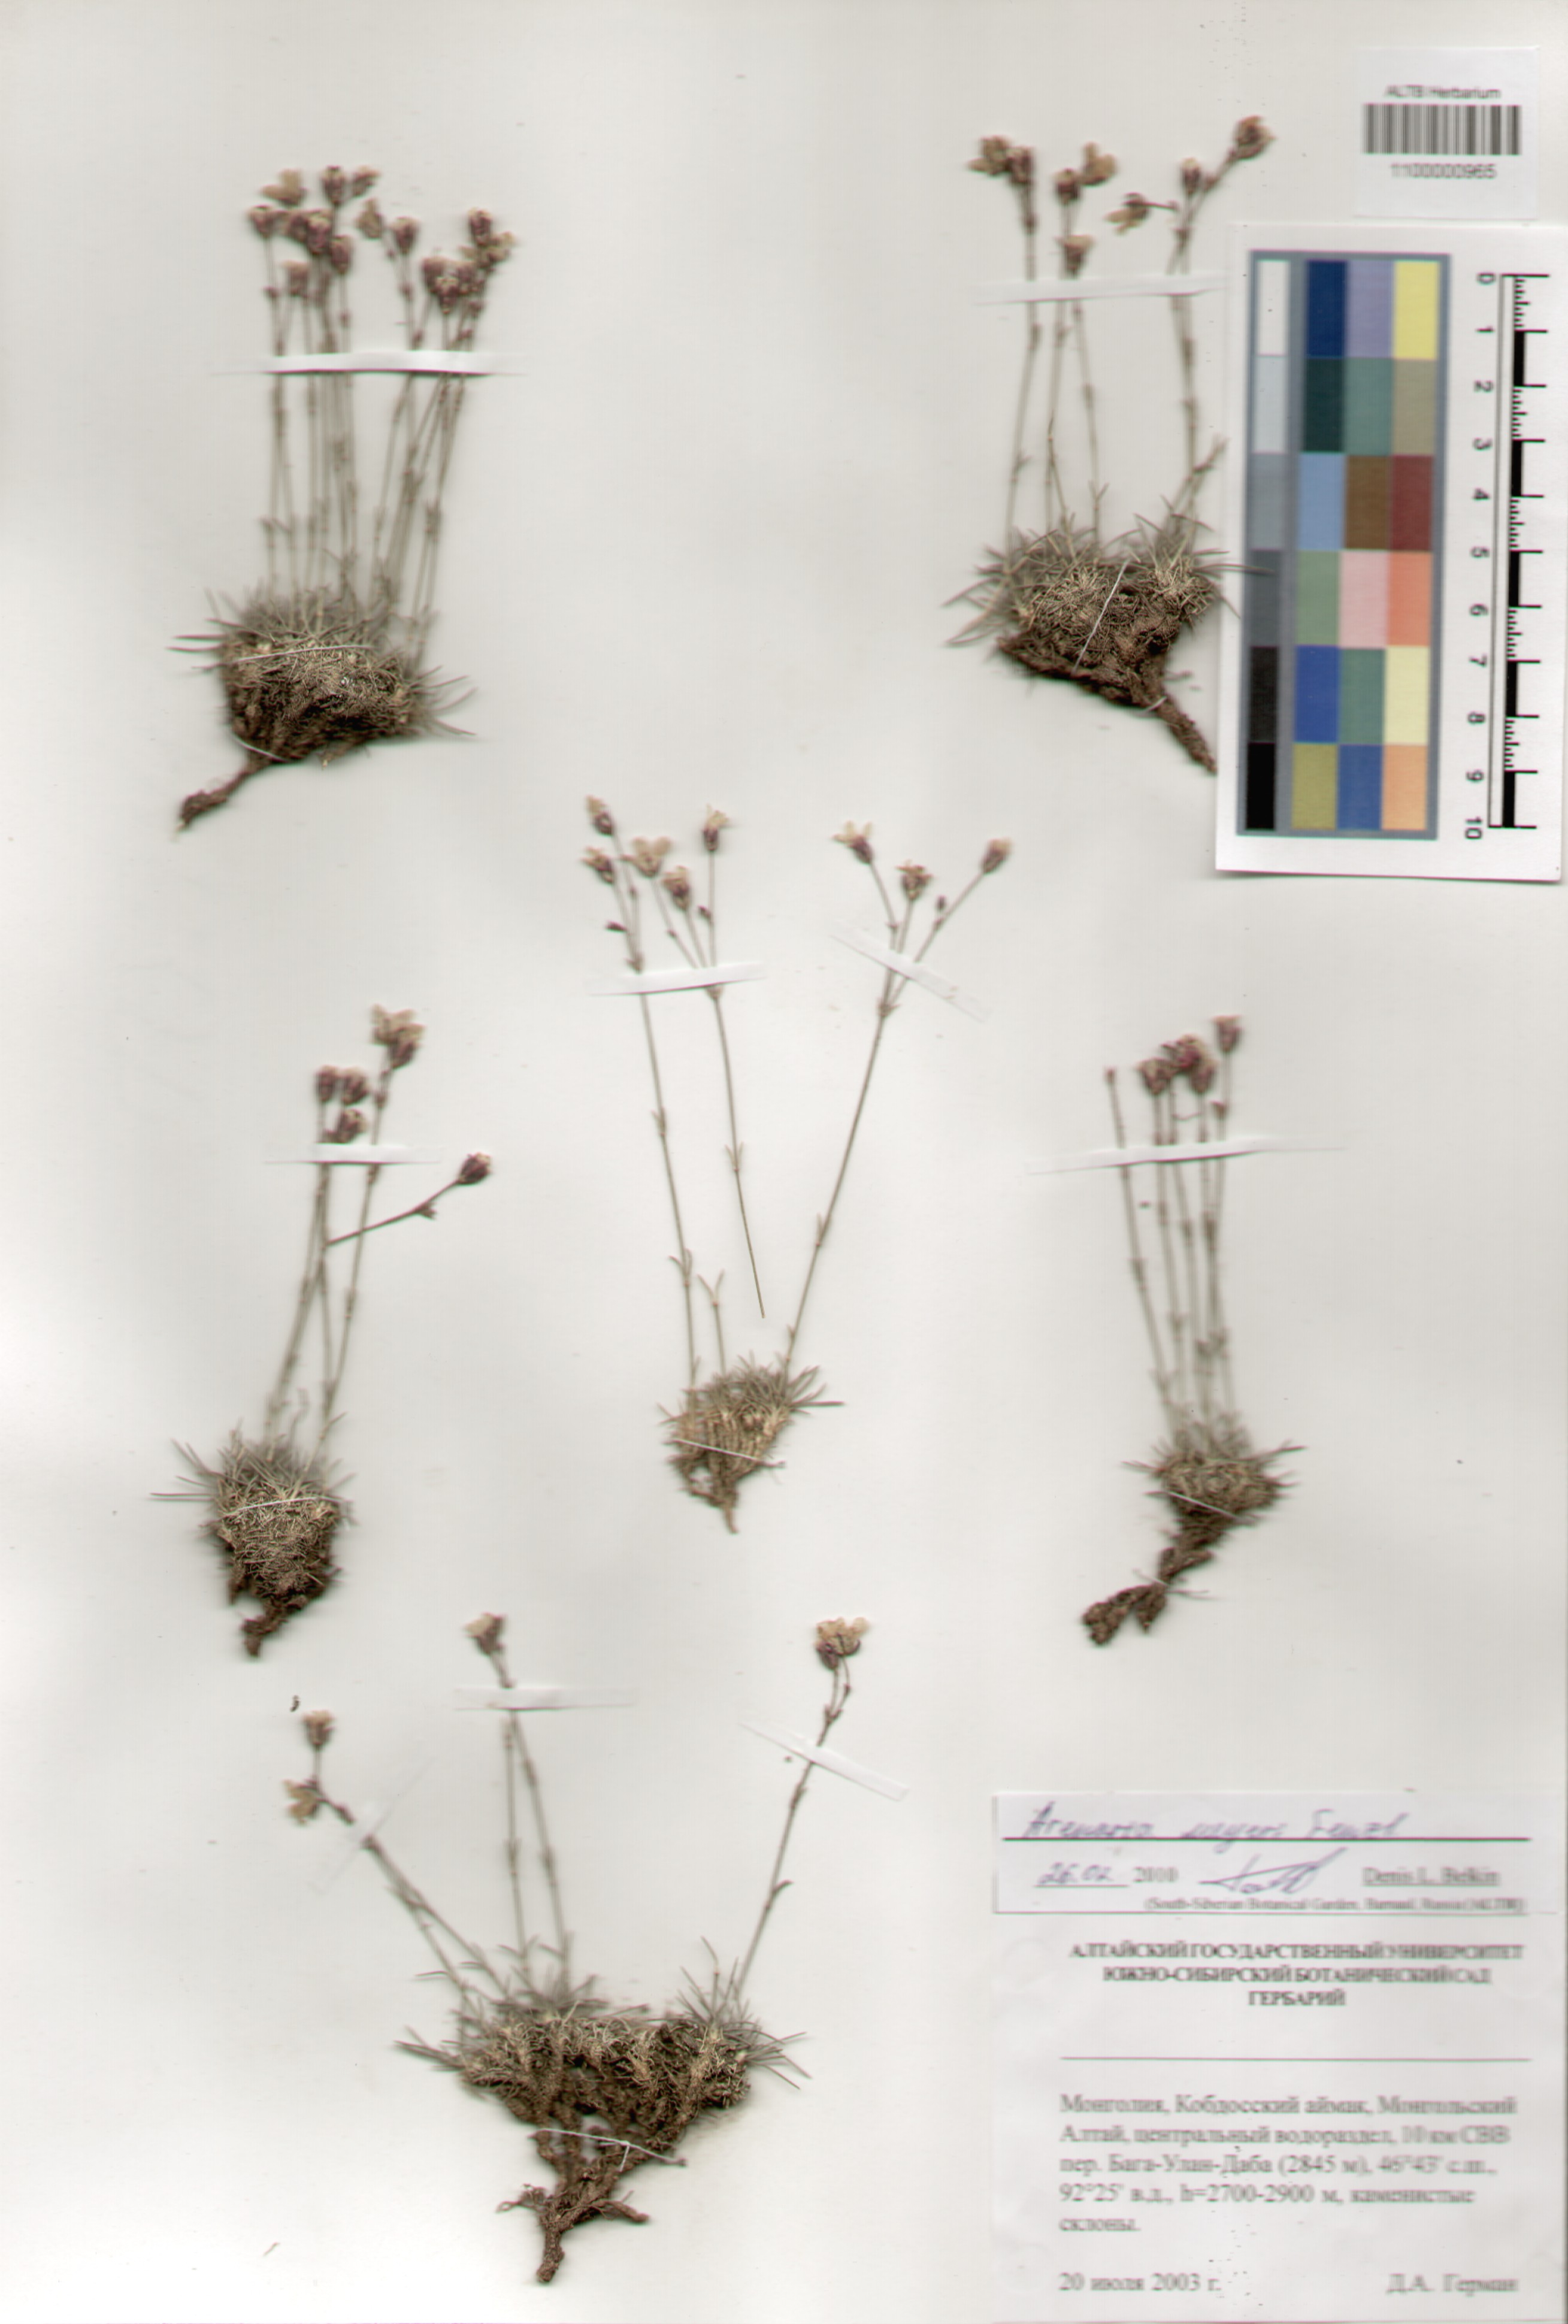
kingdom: Plantae
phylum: Tracheophyta
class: Magnoliopsida
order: Caryophyllales
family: Caryophyllaceae
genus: Eremogone
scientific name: Eremogone meyeri
